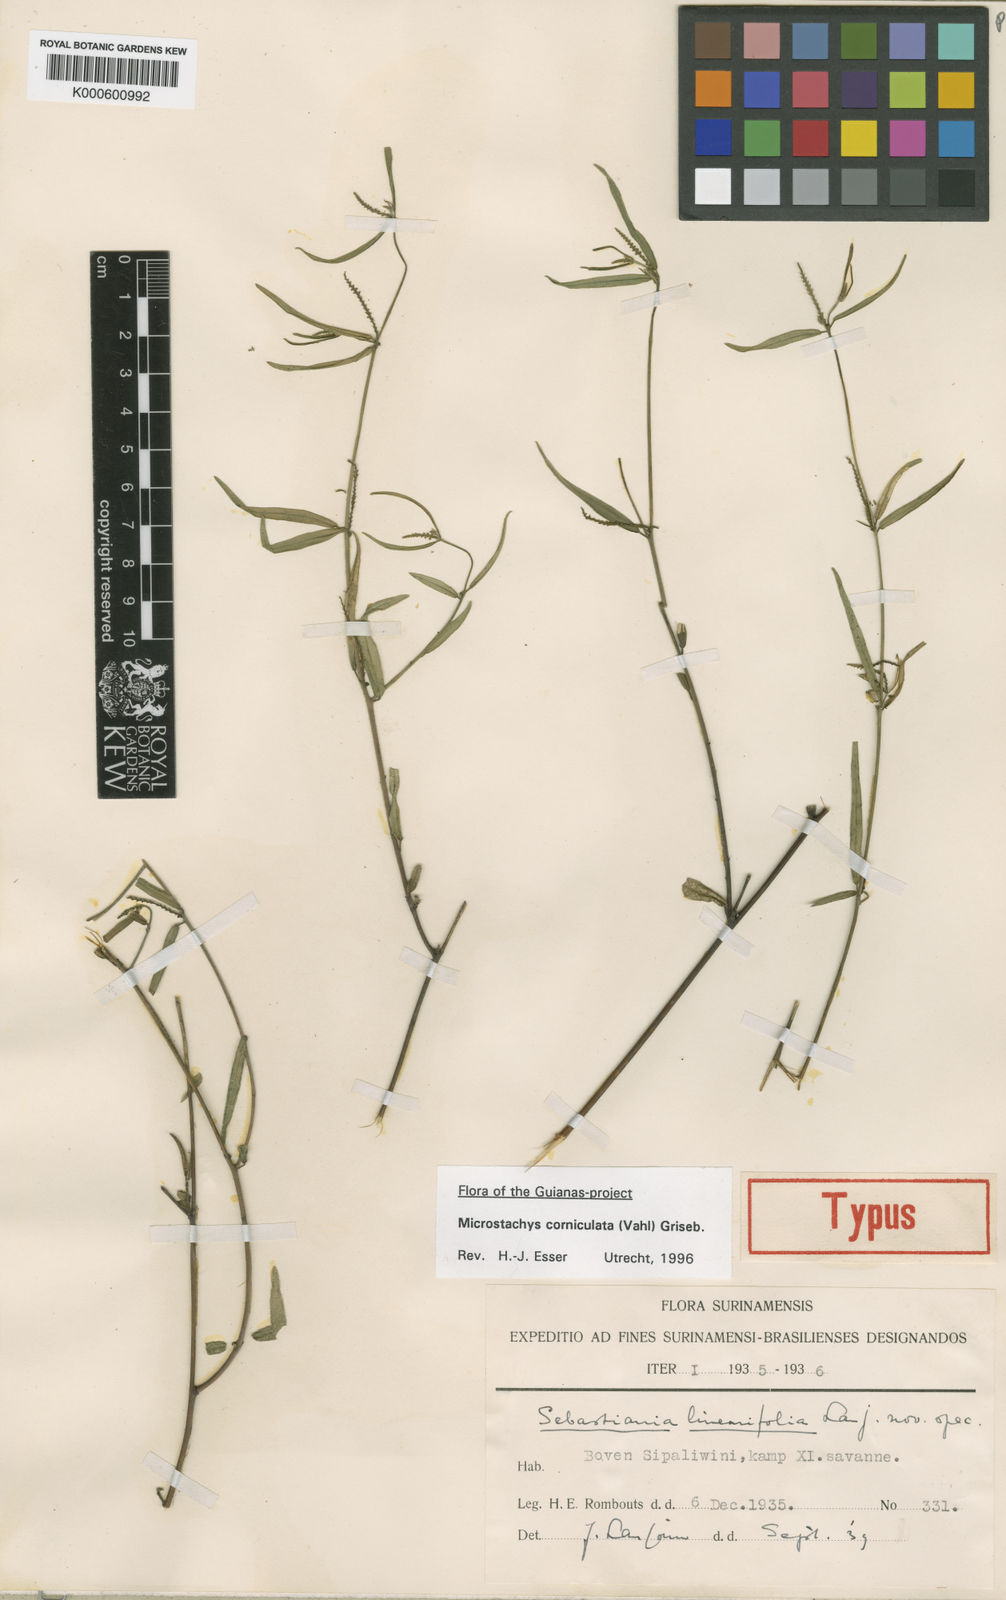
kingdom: Plantae
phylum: Tracheophyta
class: Magnoliopsida
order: Malpighiales
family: Euphorbiaceae
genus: Sebastiania
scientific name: Sebastiania
